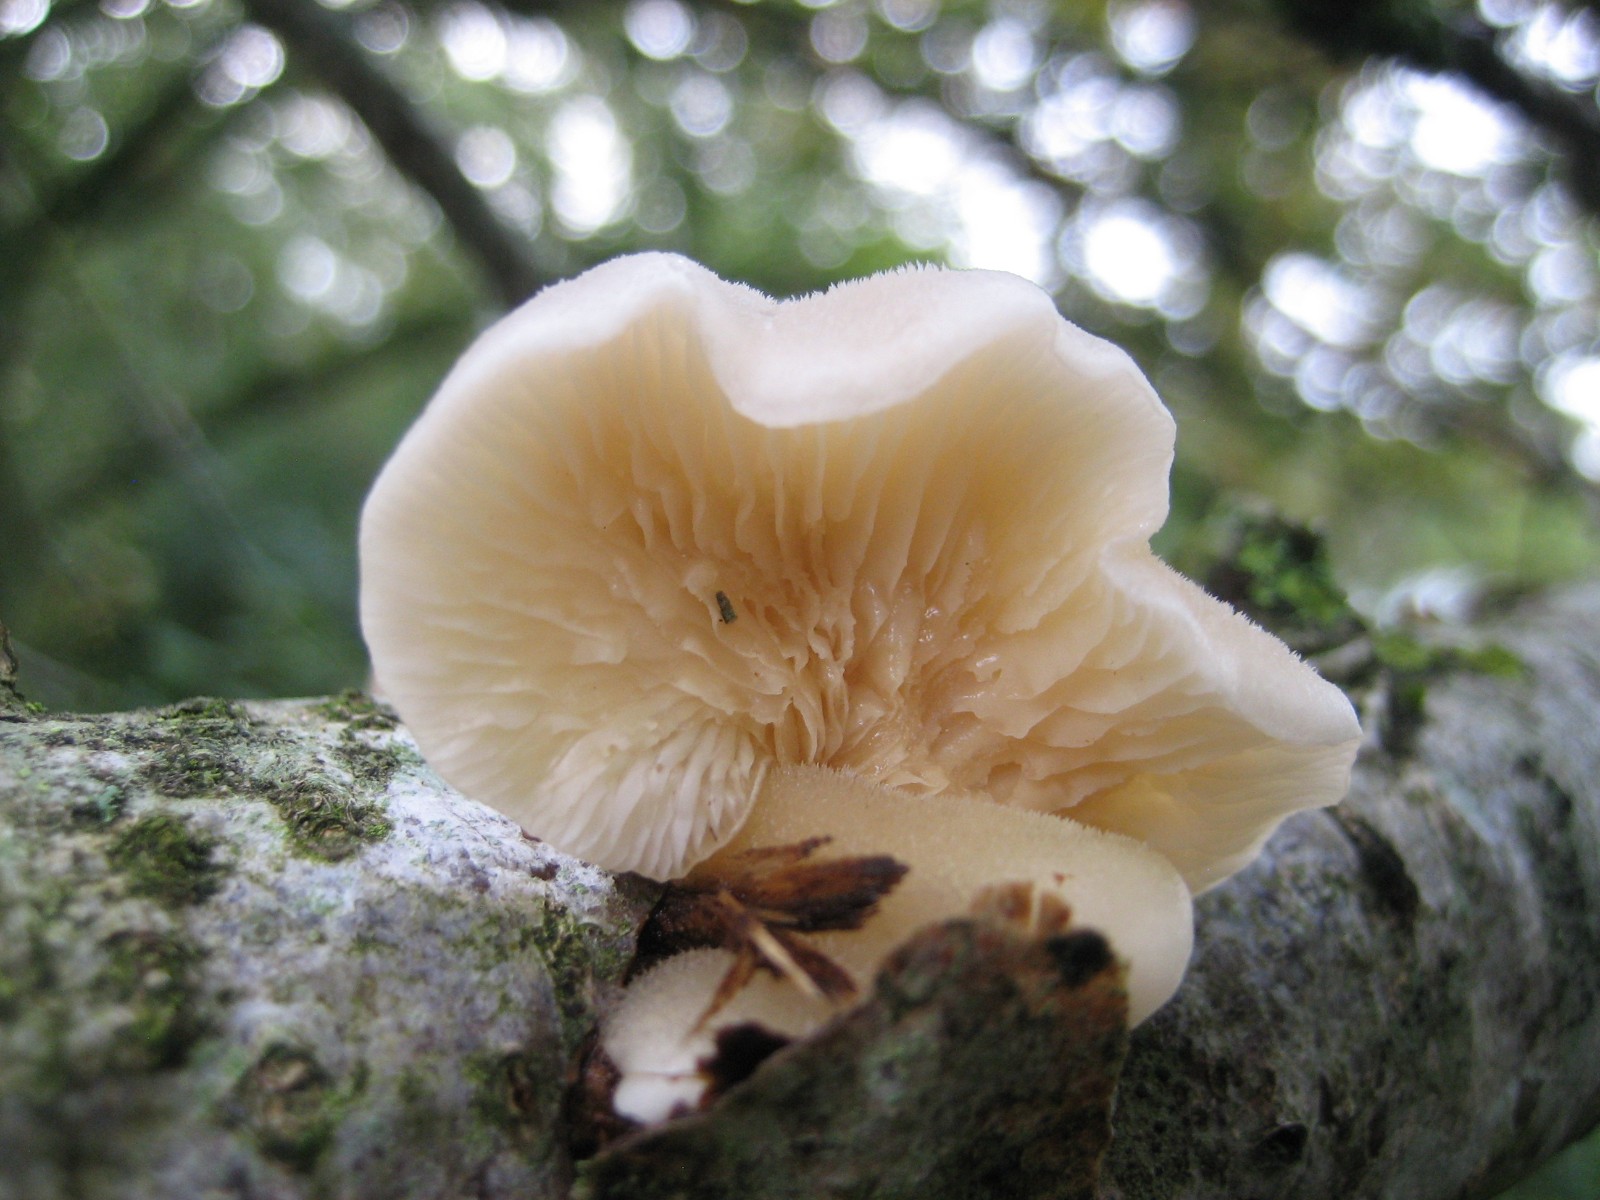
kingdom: Fungi
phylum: Basidiomycota
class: Agaricomycetes
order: Agaricales
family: Pleurotaceae
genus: Hohenbuehelia
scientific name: Hohenbuehelia
